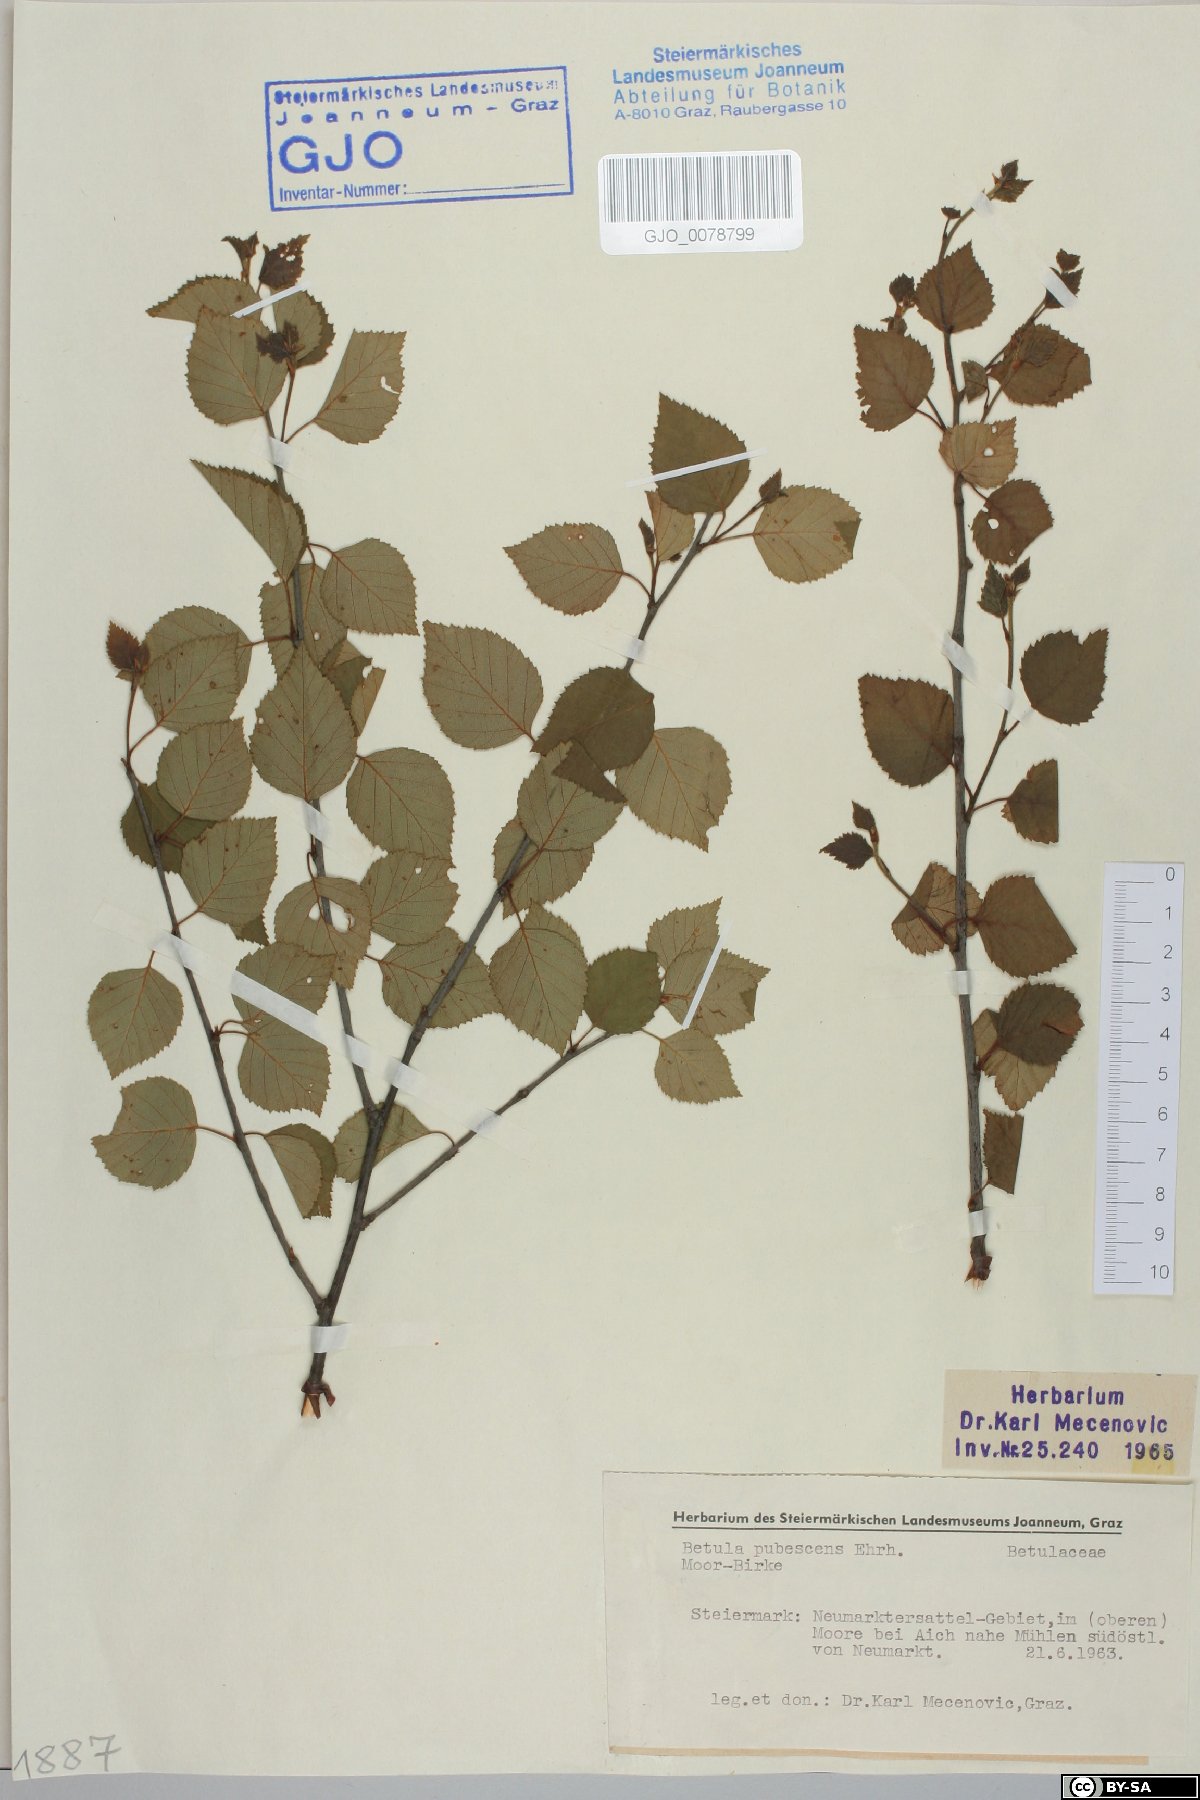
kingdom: Plantae
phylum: Tracheophyta
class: Magnoliopsida
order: Fagales
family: Betulaceae
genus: Betula
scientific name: Betula pubescens
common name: Downy birch
